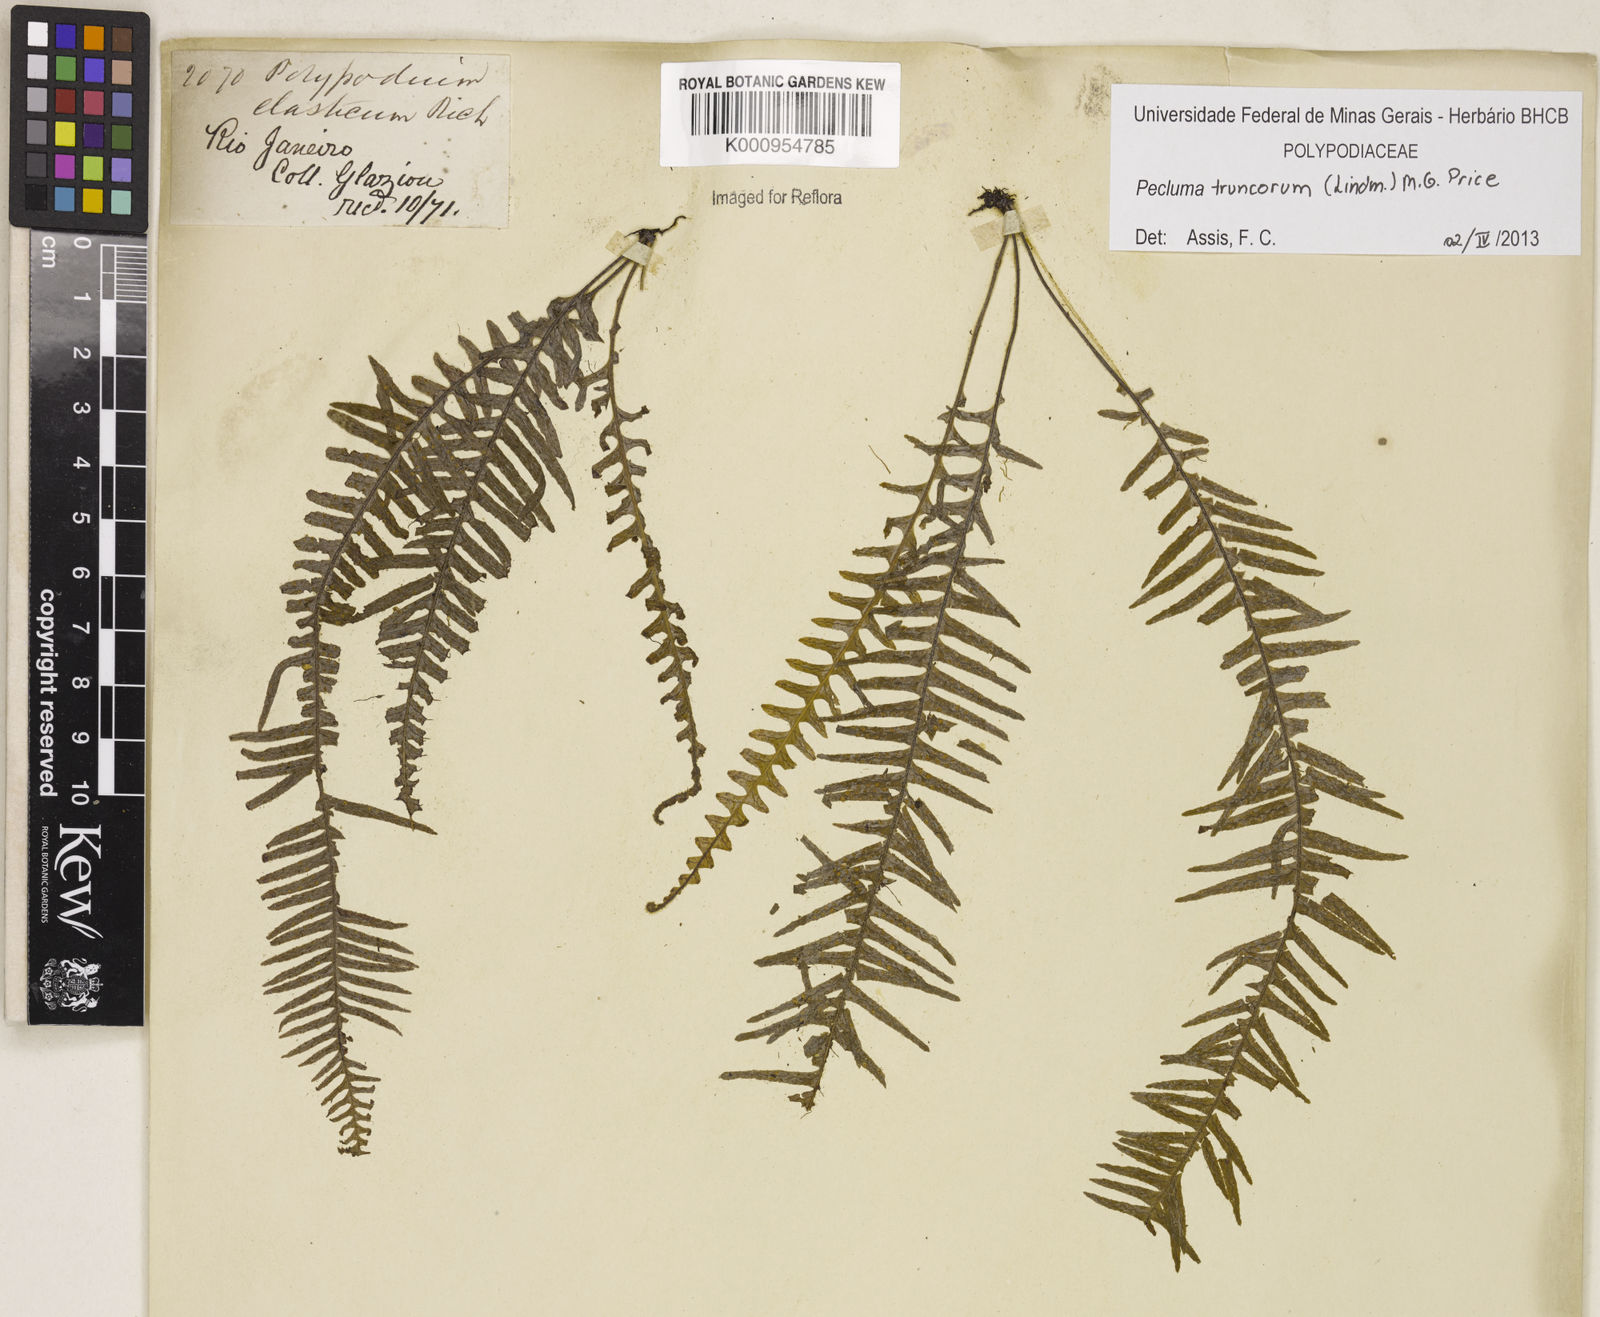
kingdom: Plantae
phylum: Tracheophyta
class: Polypodiopsida
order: Polypodiales
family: Polypodiaceae
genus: Pecluma
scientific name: Pecluma truncorum
